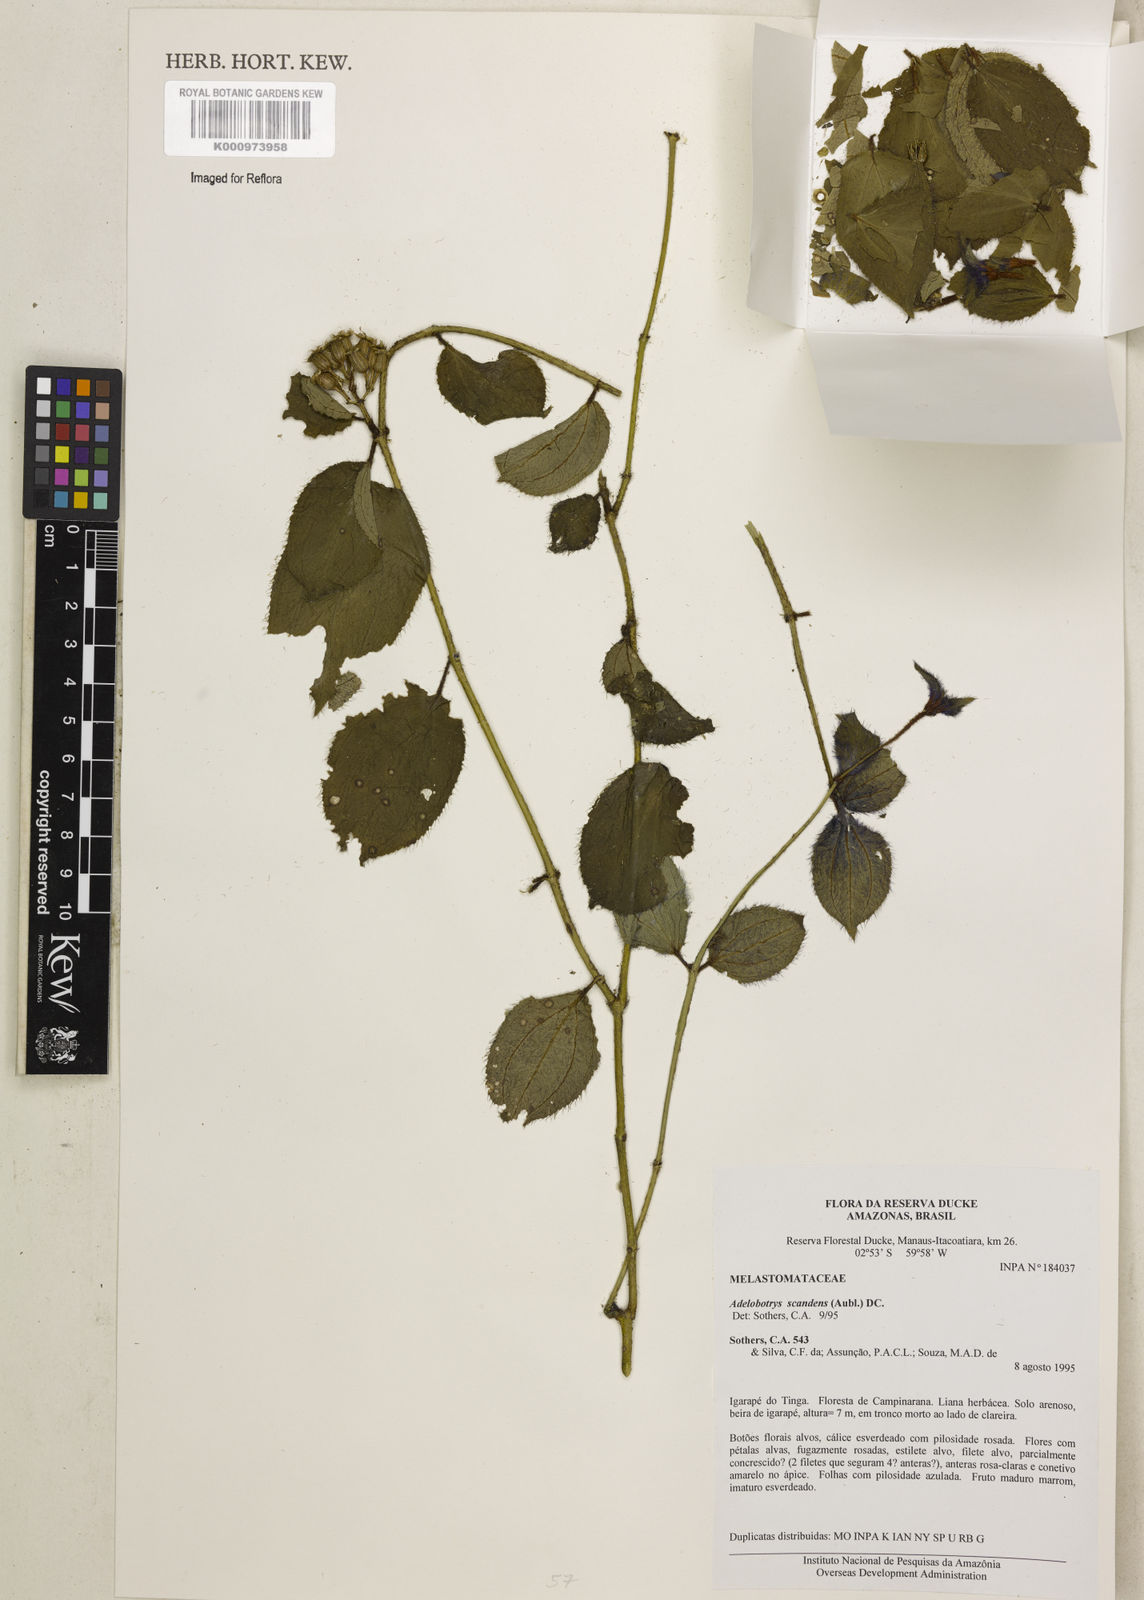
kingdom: Plantae
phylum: Tracheophyta
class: Magnoliopsida
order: Myrtales
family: Melastomataceae
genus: Adelobotrys
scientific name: Adelobotrys scandens
